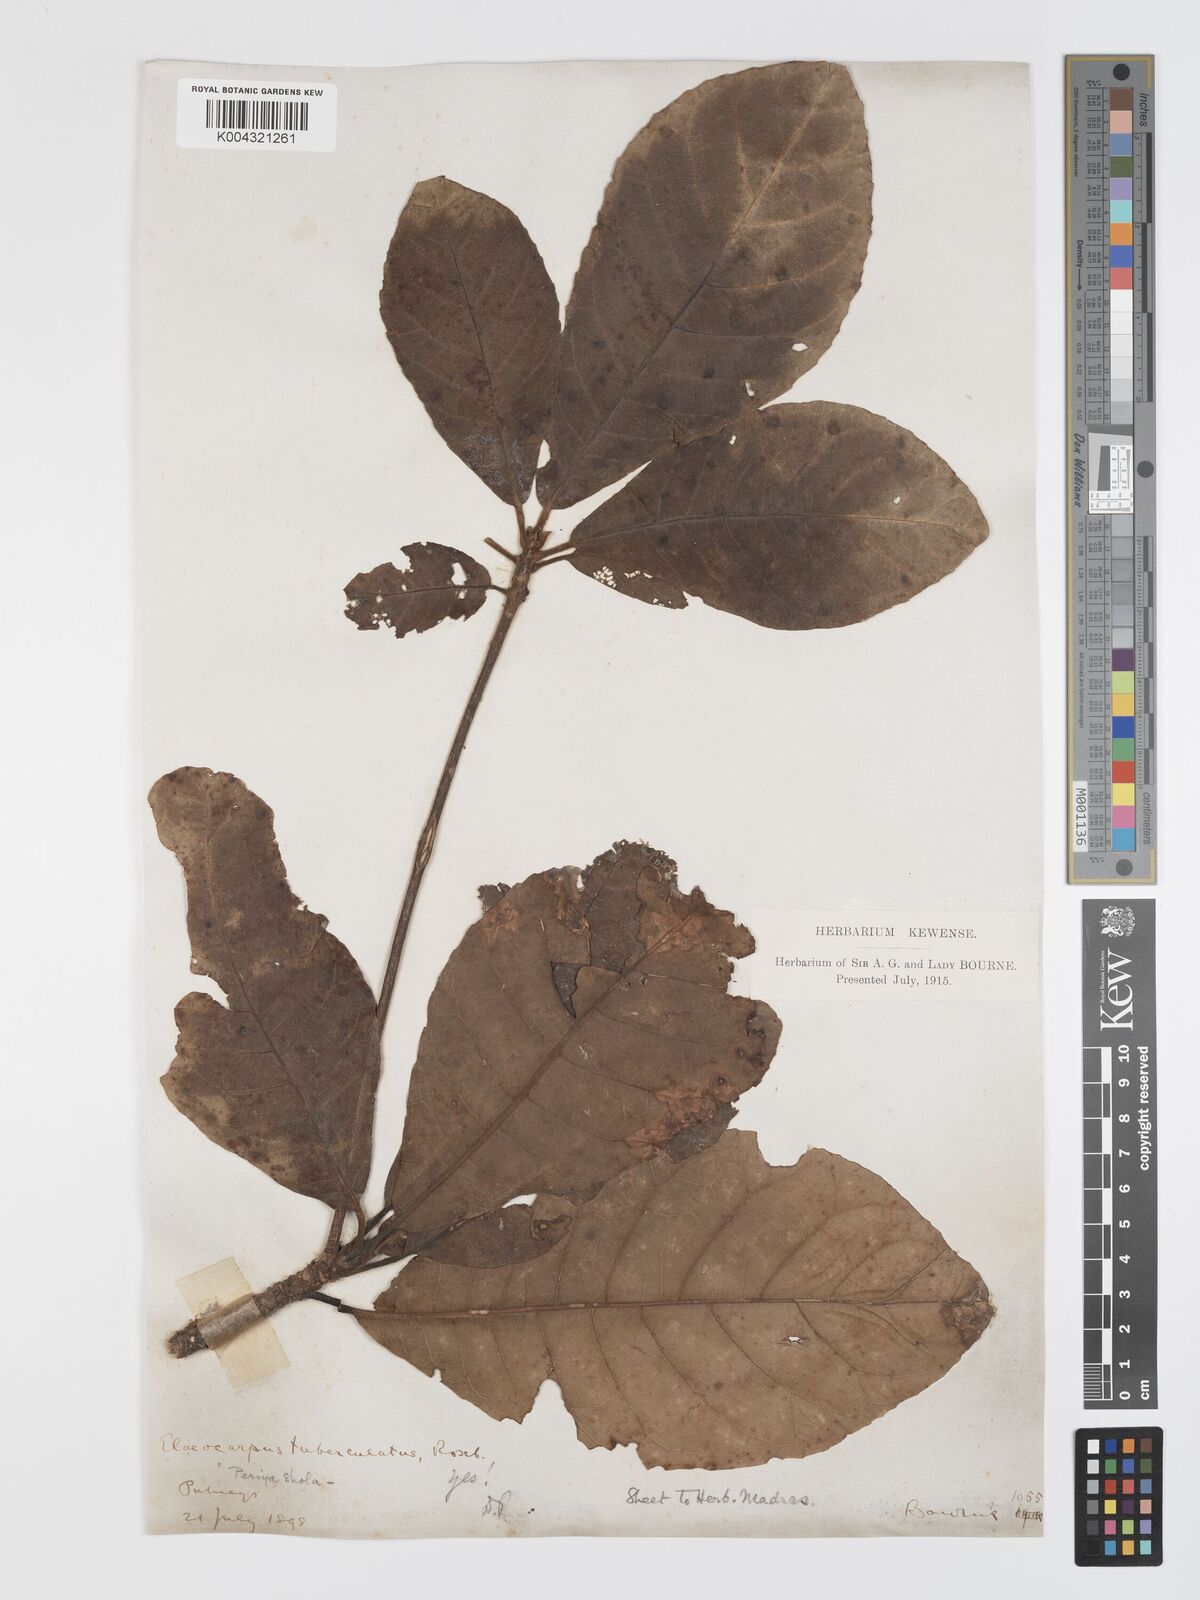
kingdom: Plantae
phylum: Tracheophyta
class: Magnoliopsida
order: Oxalidales
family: Elaeocarpaceae
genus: Elaeocarpus
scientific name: Elaeocarpus tuberculatus
